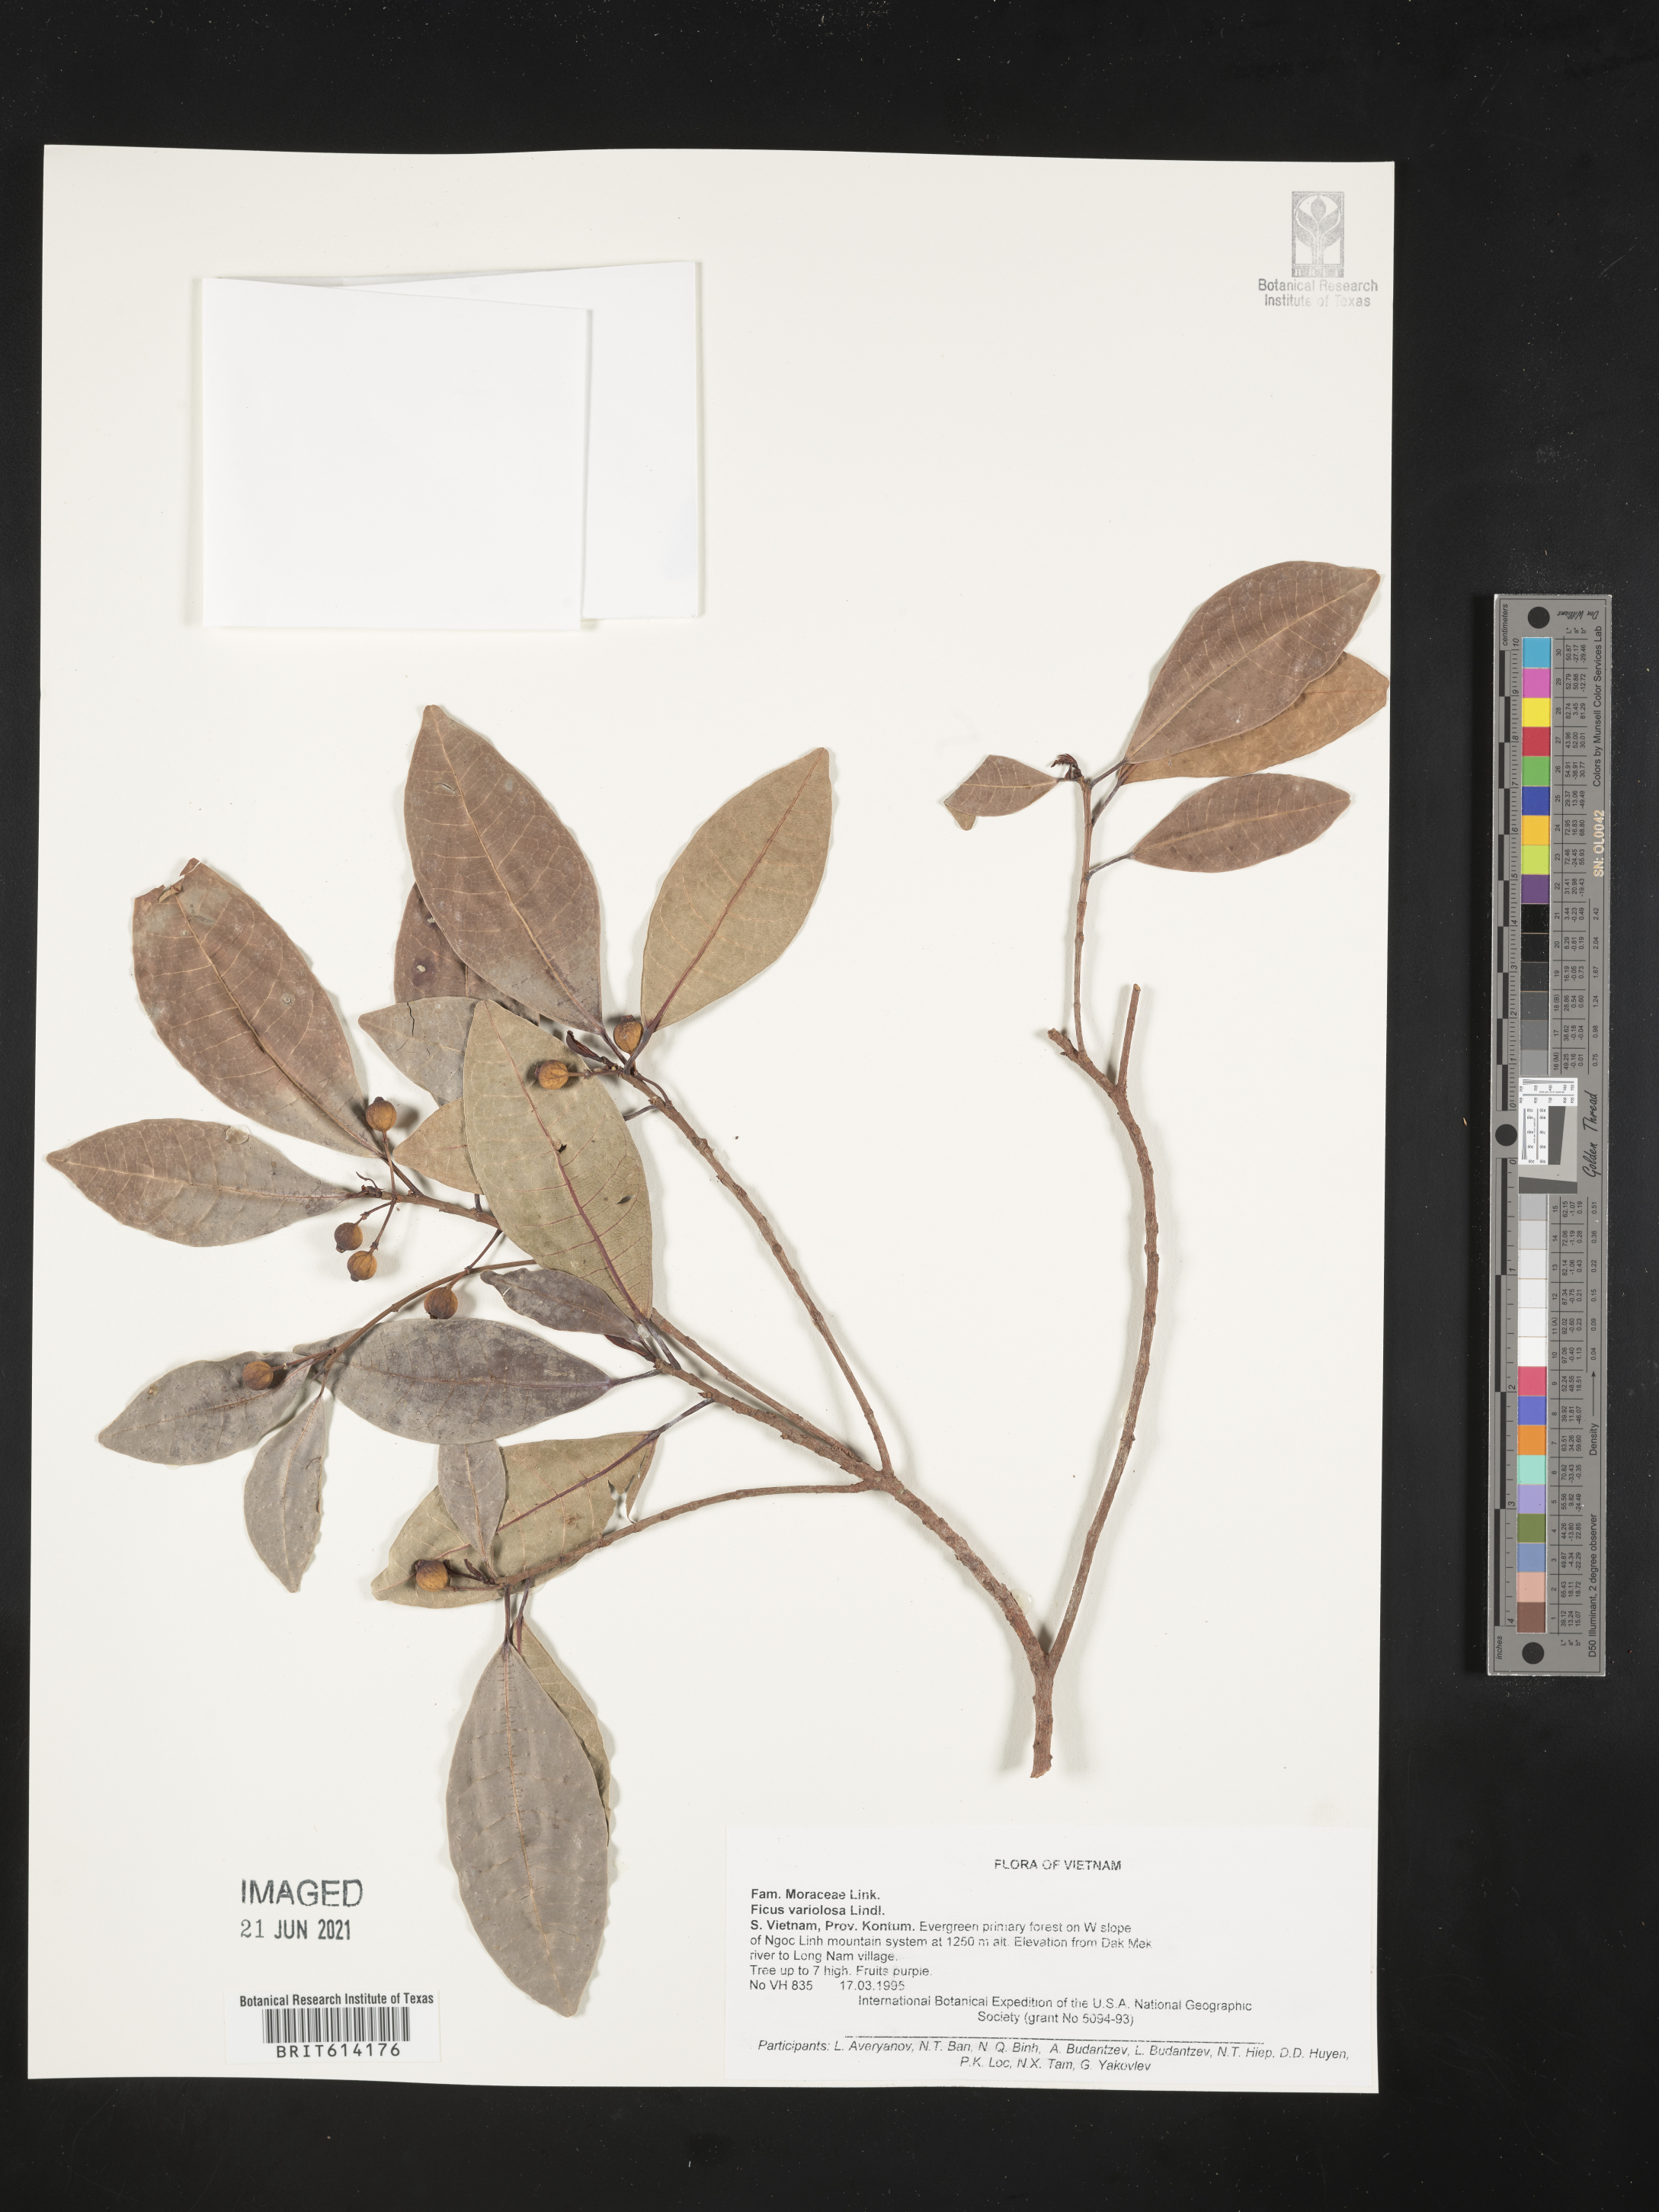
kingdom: Plantae
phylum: Tracheophyta
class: Magnoliopsida
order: Rosales
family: Moraceae
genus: Ficus
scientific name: Ficus variolosa
